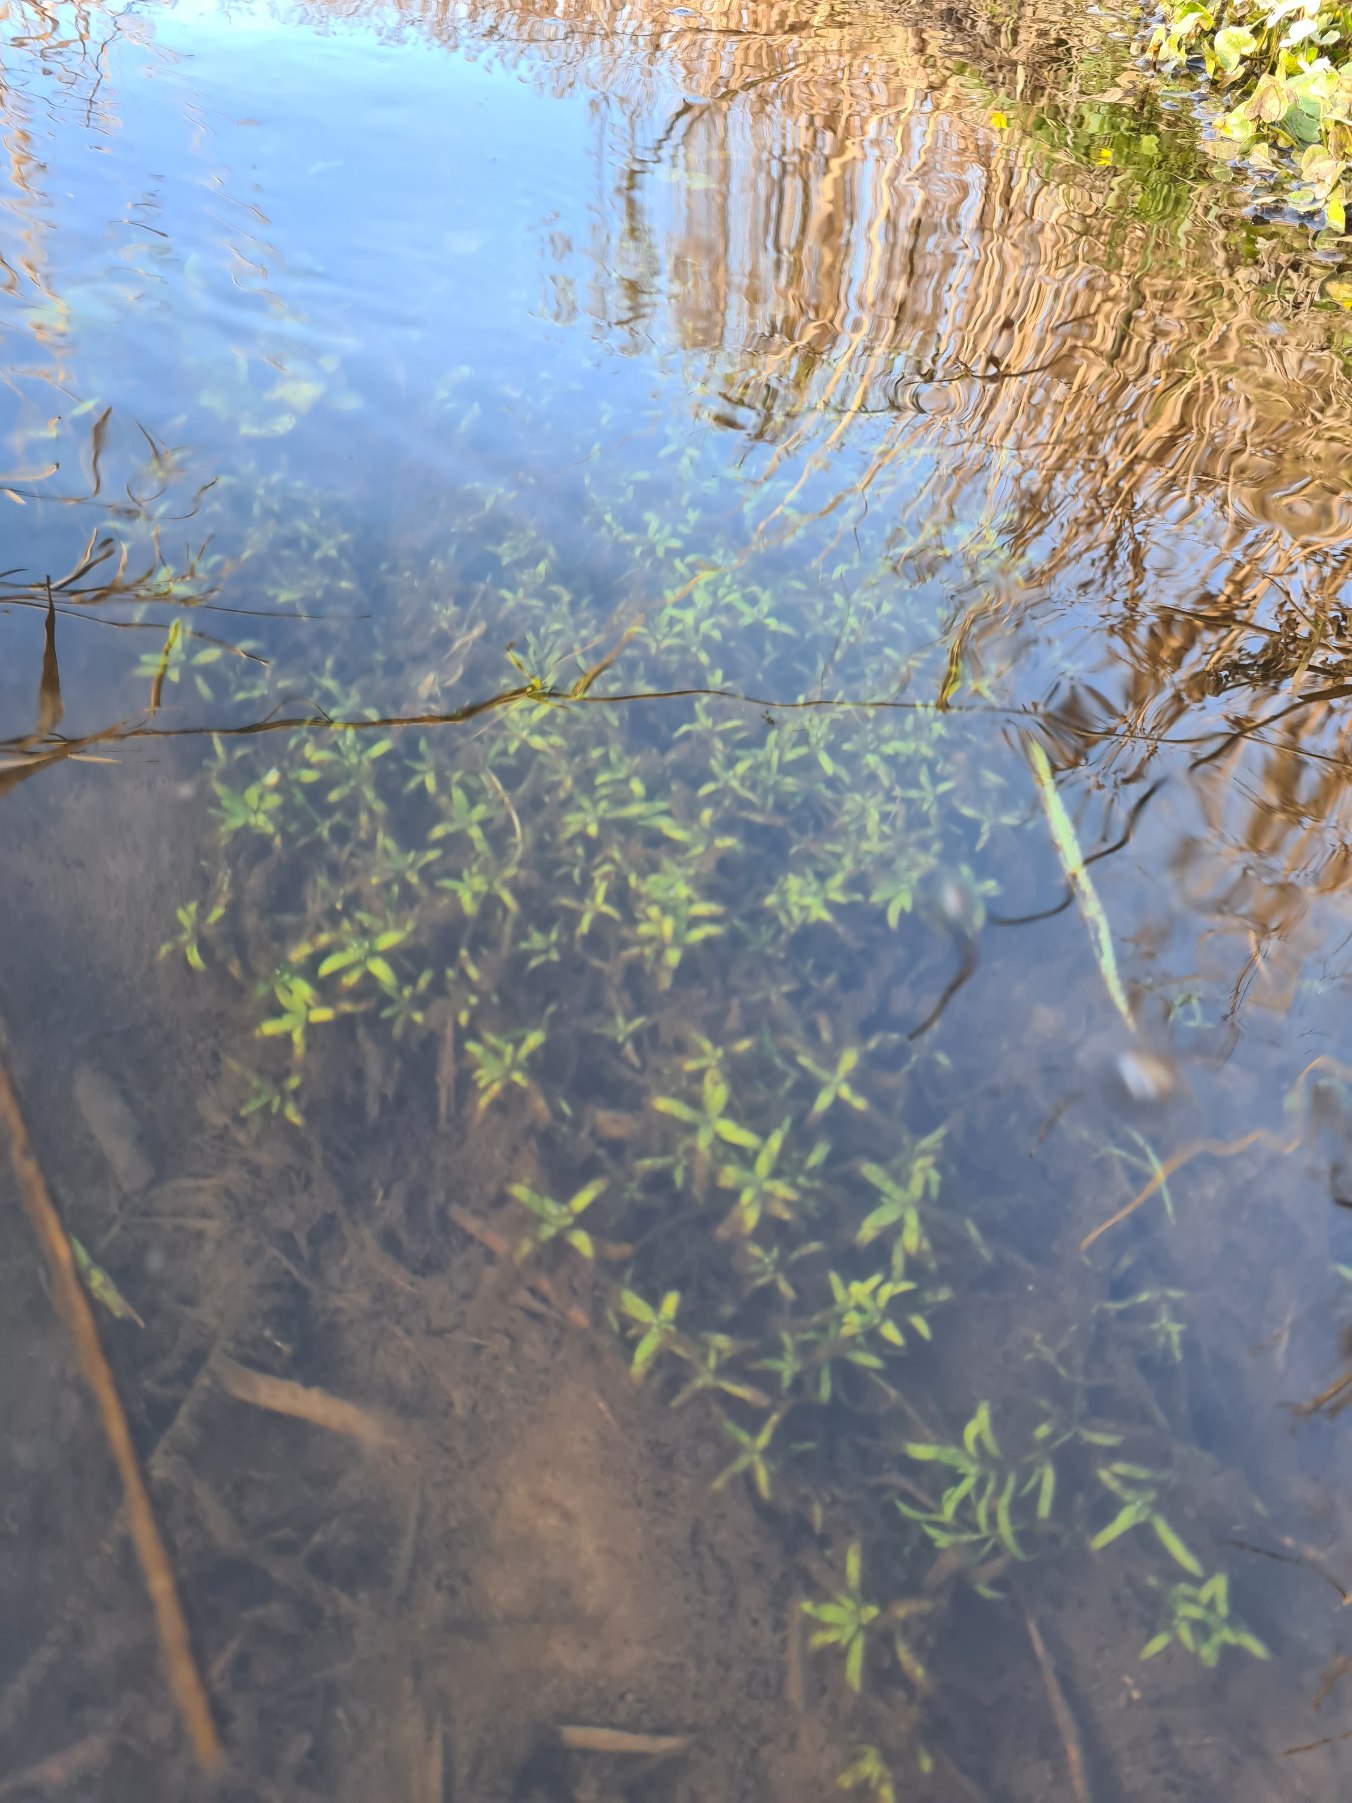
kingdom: Plantae
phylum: Tracheophyta
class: Magnoliopsida
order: Lamiales
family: Plantaginaceae
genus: Callitriche
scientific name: Callitriche
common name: Vandstjerneslægten
